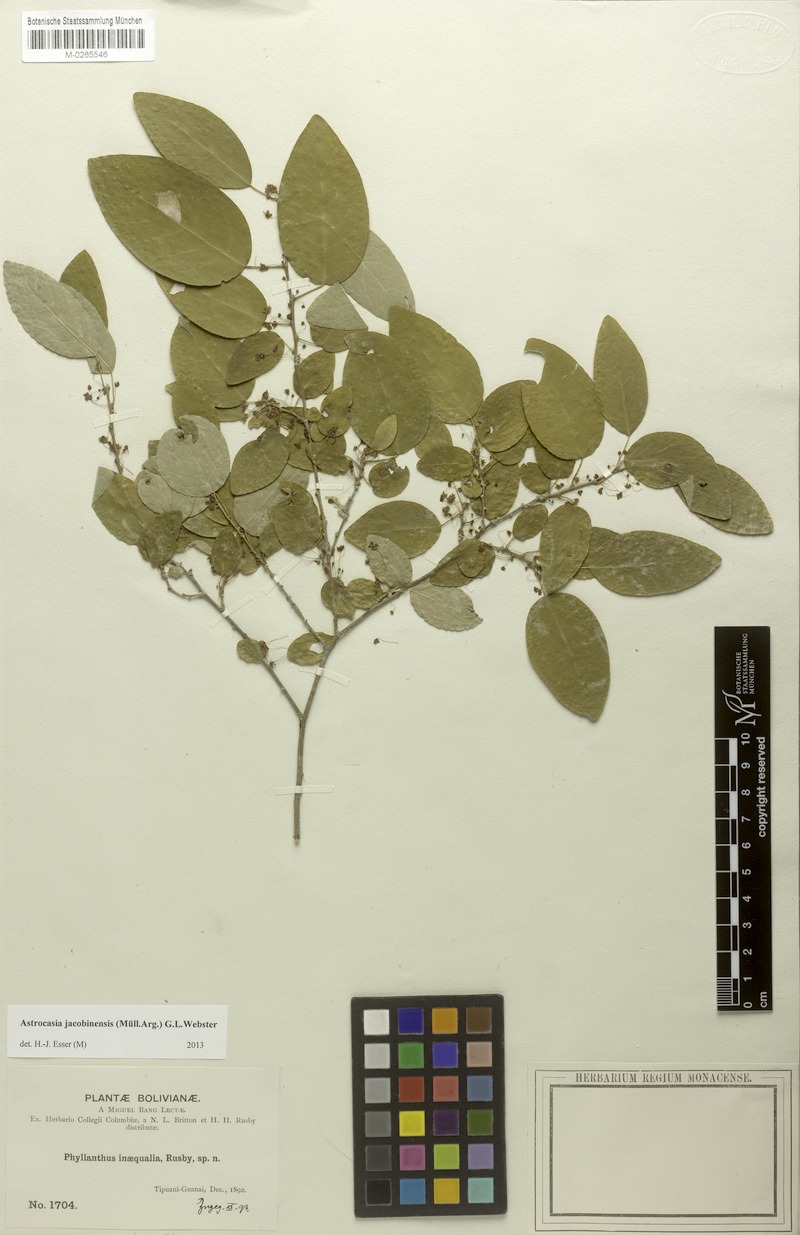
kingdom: Plantae
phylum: Tracheophyta
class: Magnoliopsida
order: Malpighiales
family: Phyllanthaceae
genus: Astrocasia
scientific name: Astrocasia jacobinensis
